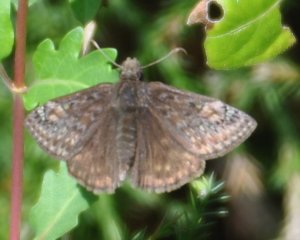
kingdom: Animalia
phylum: Arthropoda
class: Insecta
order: Lepidoptera
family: Hesperiidae
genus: Gesta
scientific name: Gesta
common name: Juvenal's Duskywing
